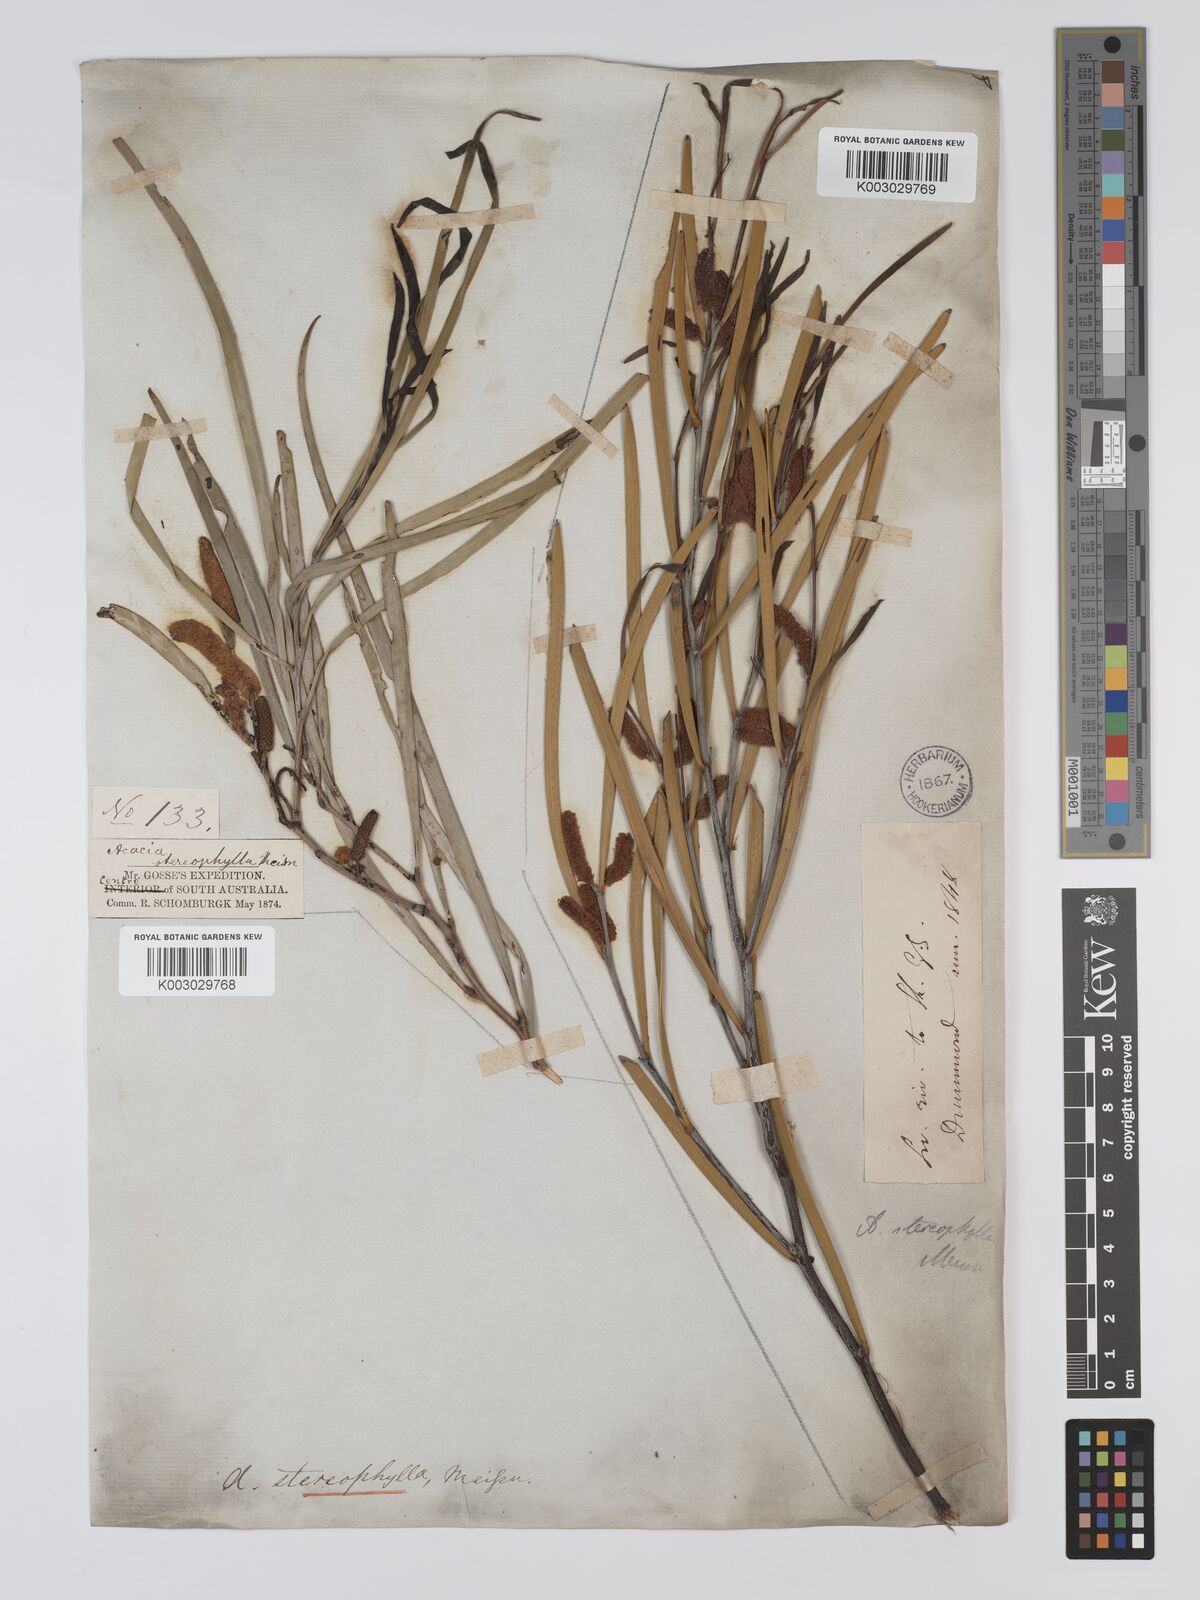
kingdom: Plantae
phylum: Tracheophyta
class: Magnoliopsida
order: Fabales
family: Fabaceae
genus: Acacia
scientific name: Acacia stereophylla
